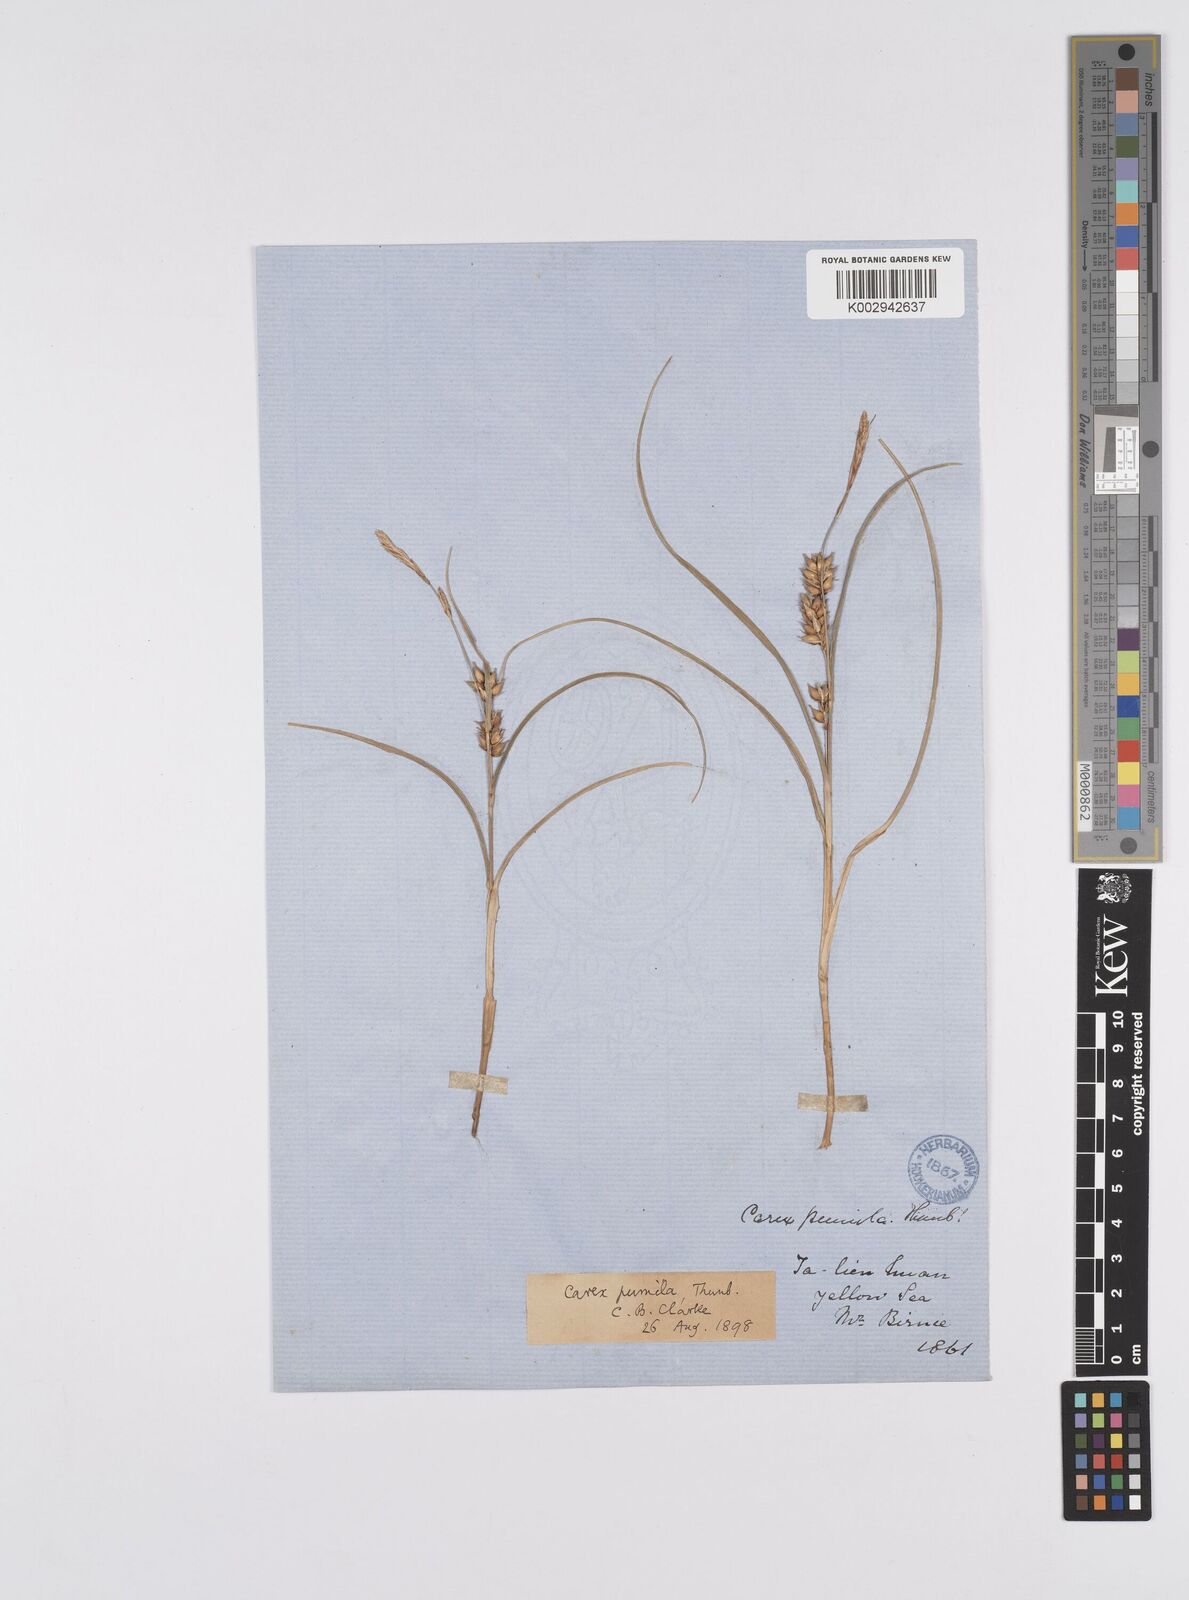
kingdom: Plantae
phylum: Tracheophyta
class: Liliopsida
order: Poales
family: Cyperaceae
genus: Carex
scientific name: Carex pumila
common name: Dwarf sedge
